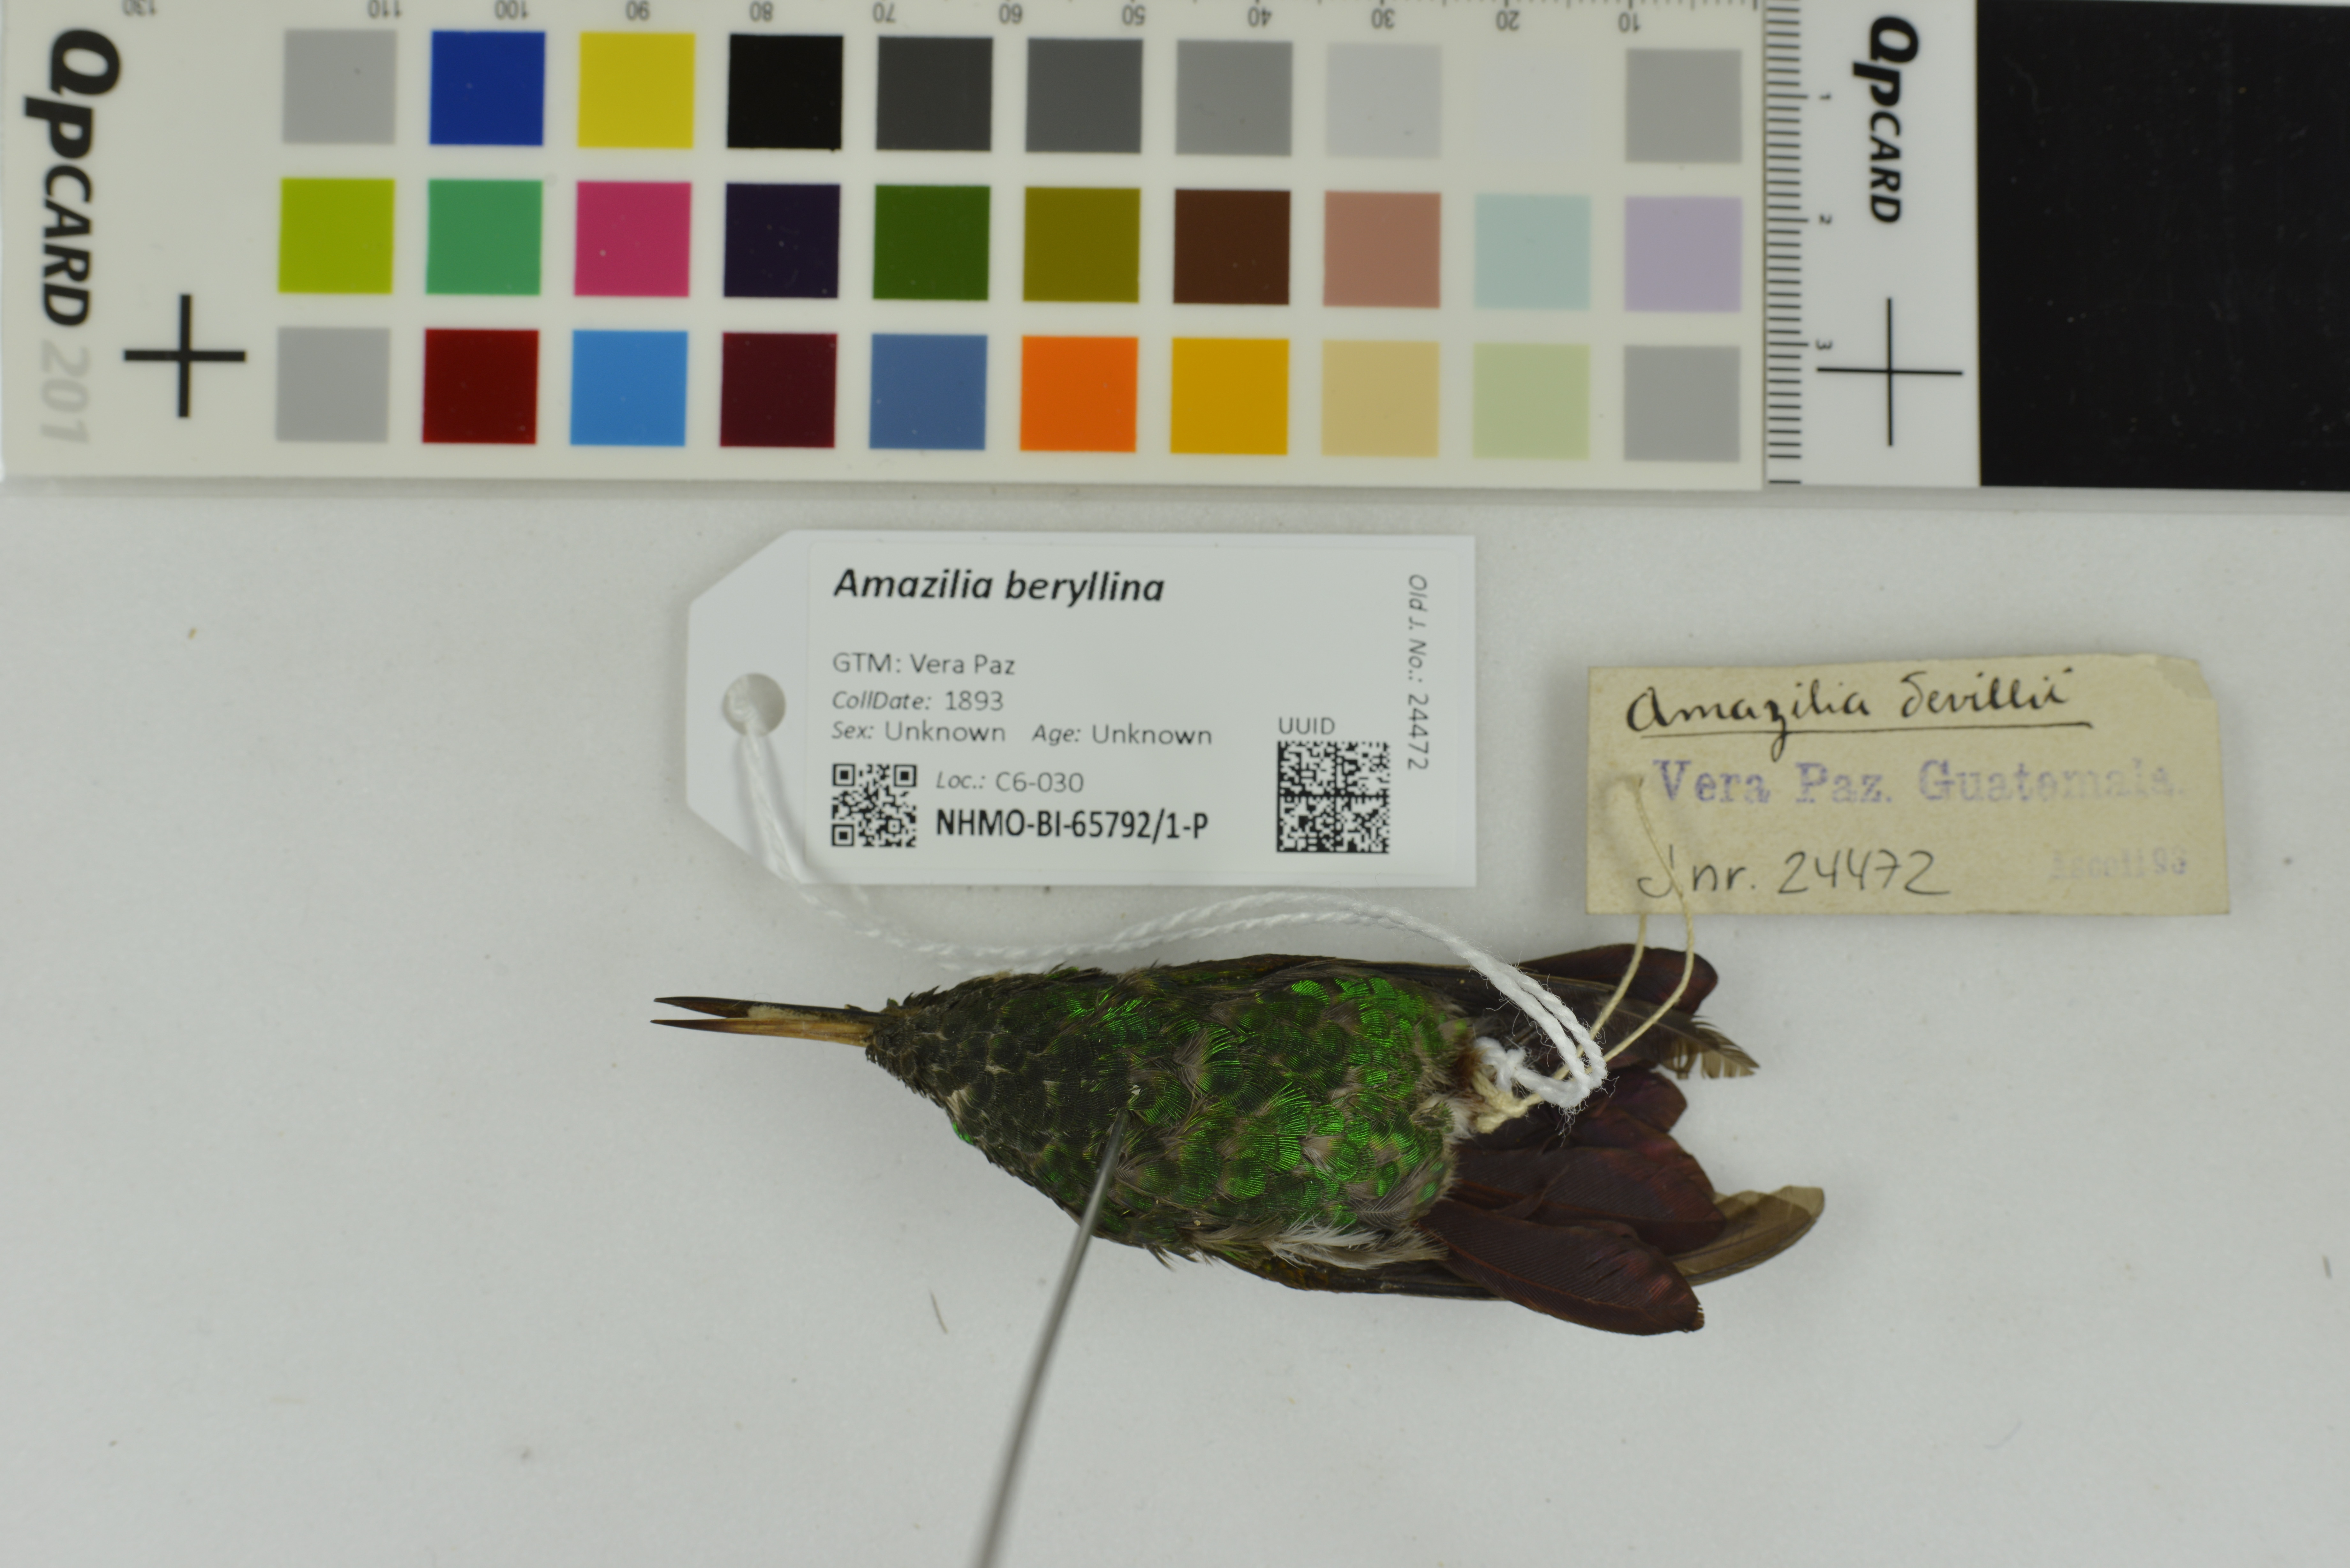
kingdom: Animalia
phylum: Chordata
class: Aves
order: Apodiformes
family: Trochilidae
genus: Saucerottia
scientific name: Saucerottia beryllina
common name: Berylline hummingbird
